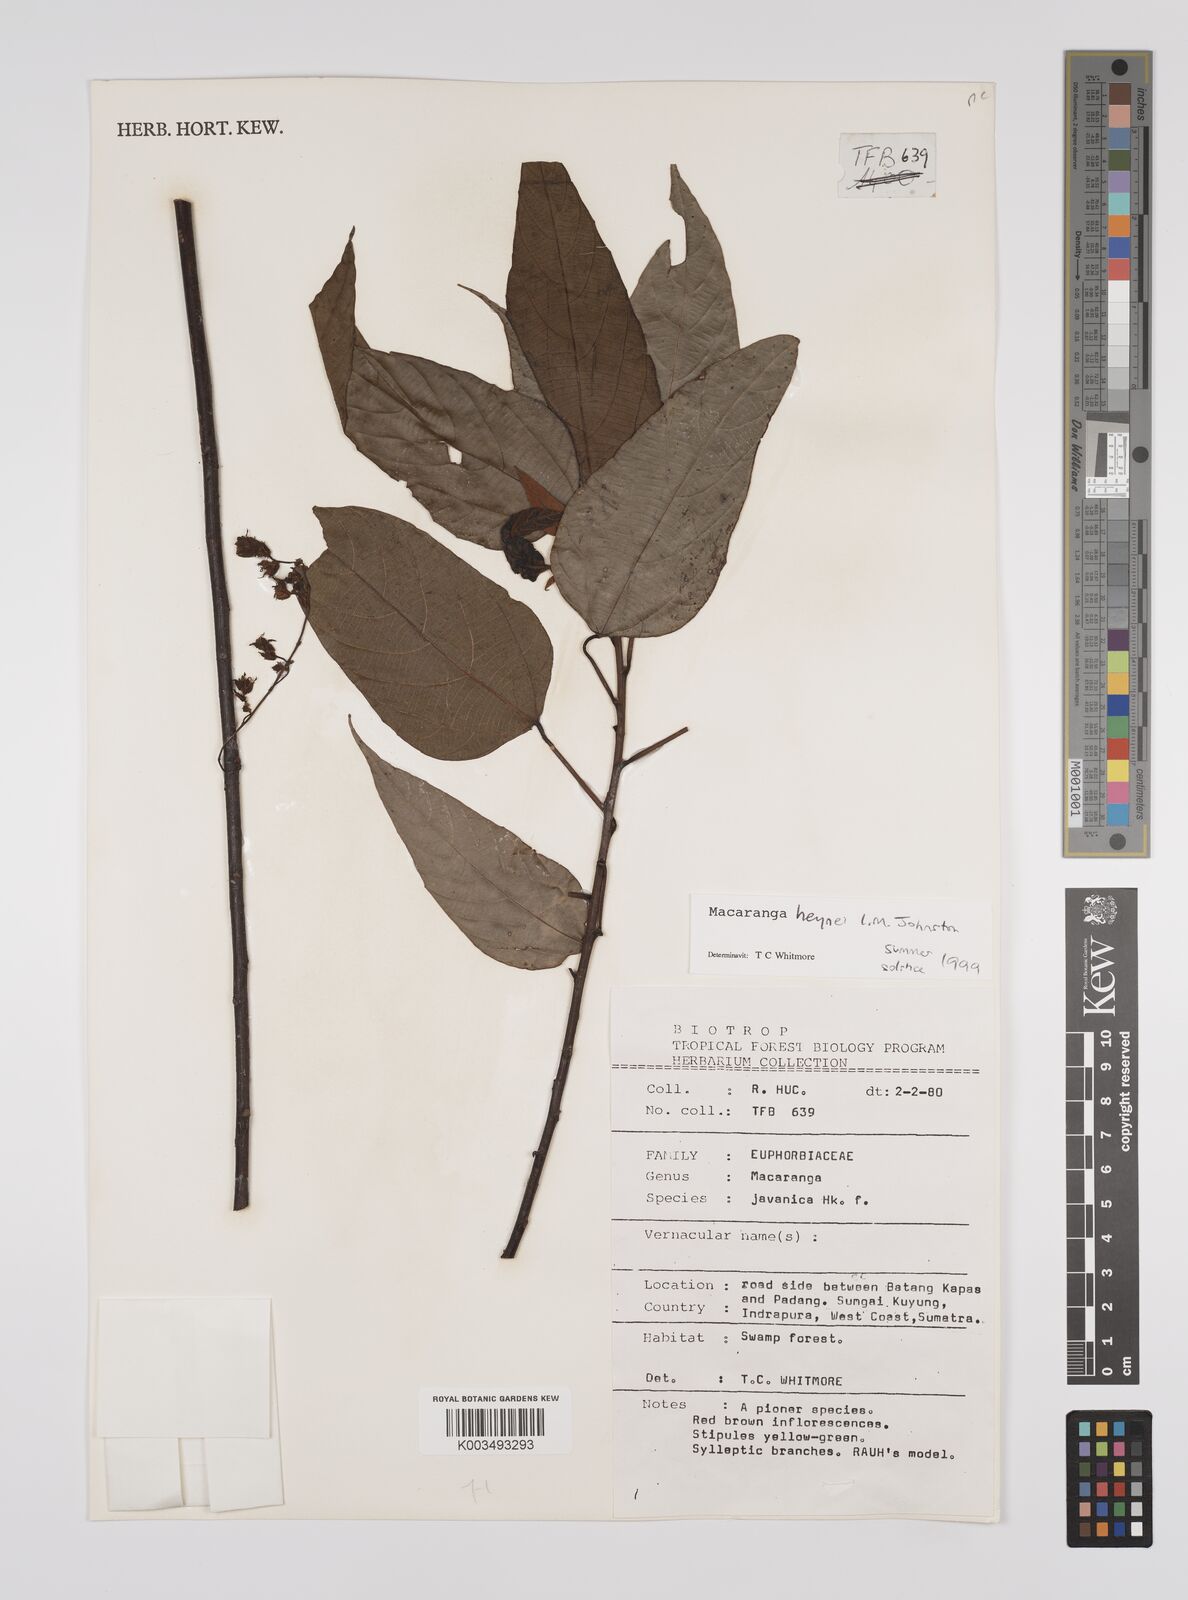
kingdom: Plantae
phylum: Tracheophyta
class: Magnoliopsida
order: Malpighiales
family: Euphorbiaceae
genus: Macaranga
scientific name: Macaranga heynei
